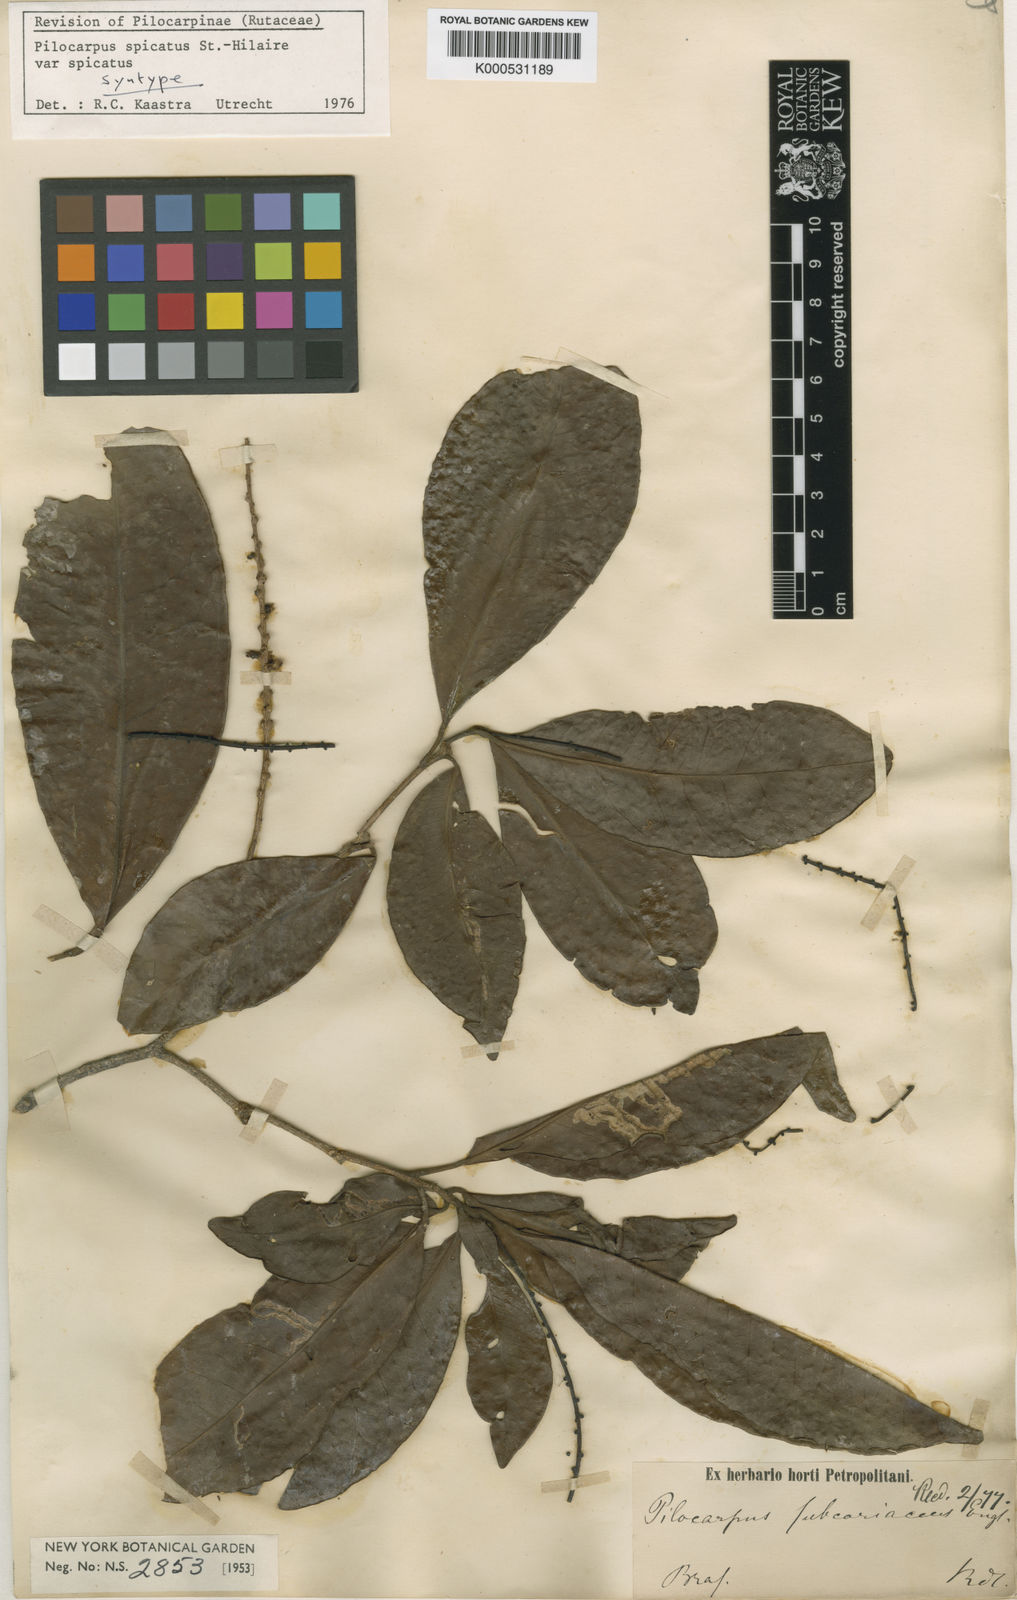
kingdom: Plantae
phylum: Tracheophyta
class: Magnoliopsida
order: Sapindales
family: Rutaceae
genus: Pilocarpus
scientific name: Pilocarpus
